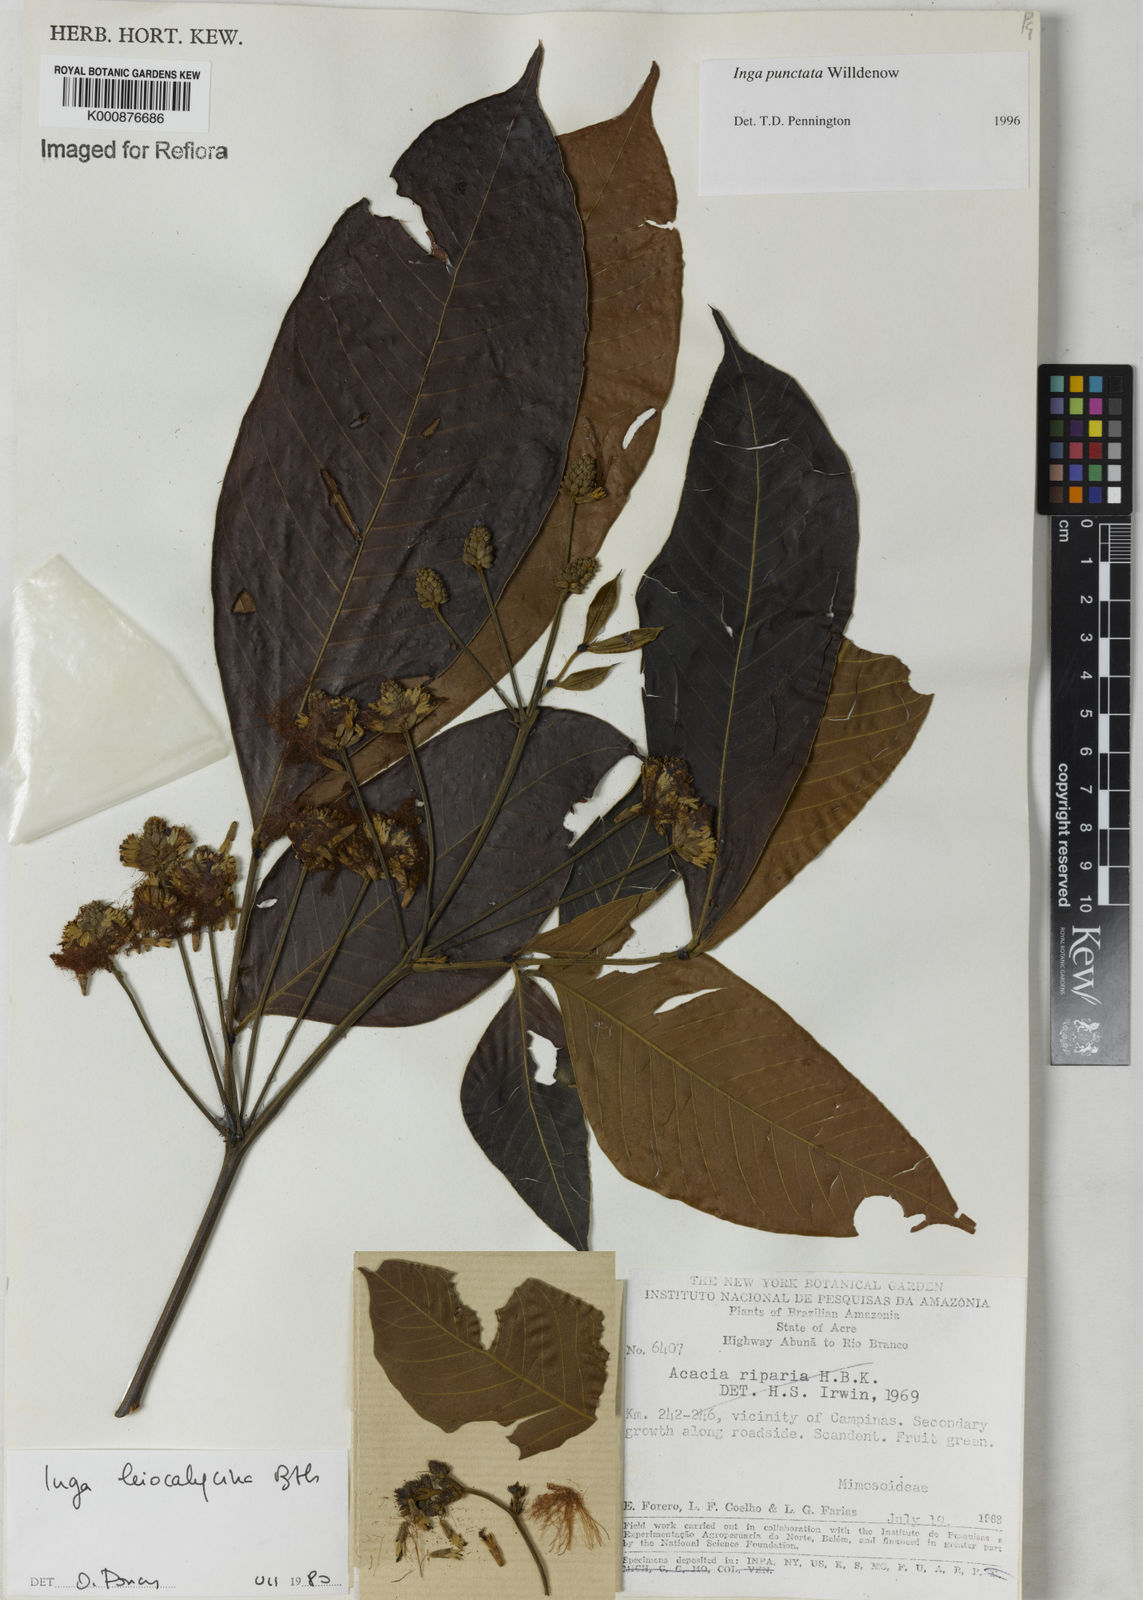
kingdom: Plantae
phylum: Tracheophyta
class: Magnoliopsida
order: Fabales
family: Fabaceae
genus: Inga
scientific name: Inga punctata
